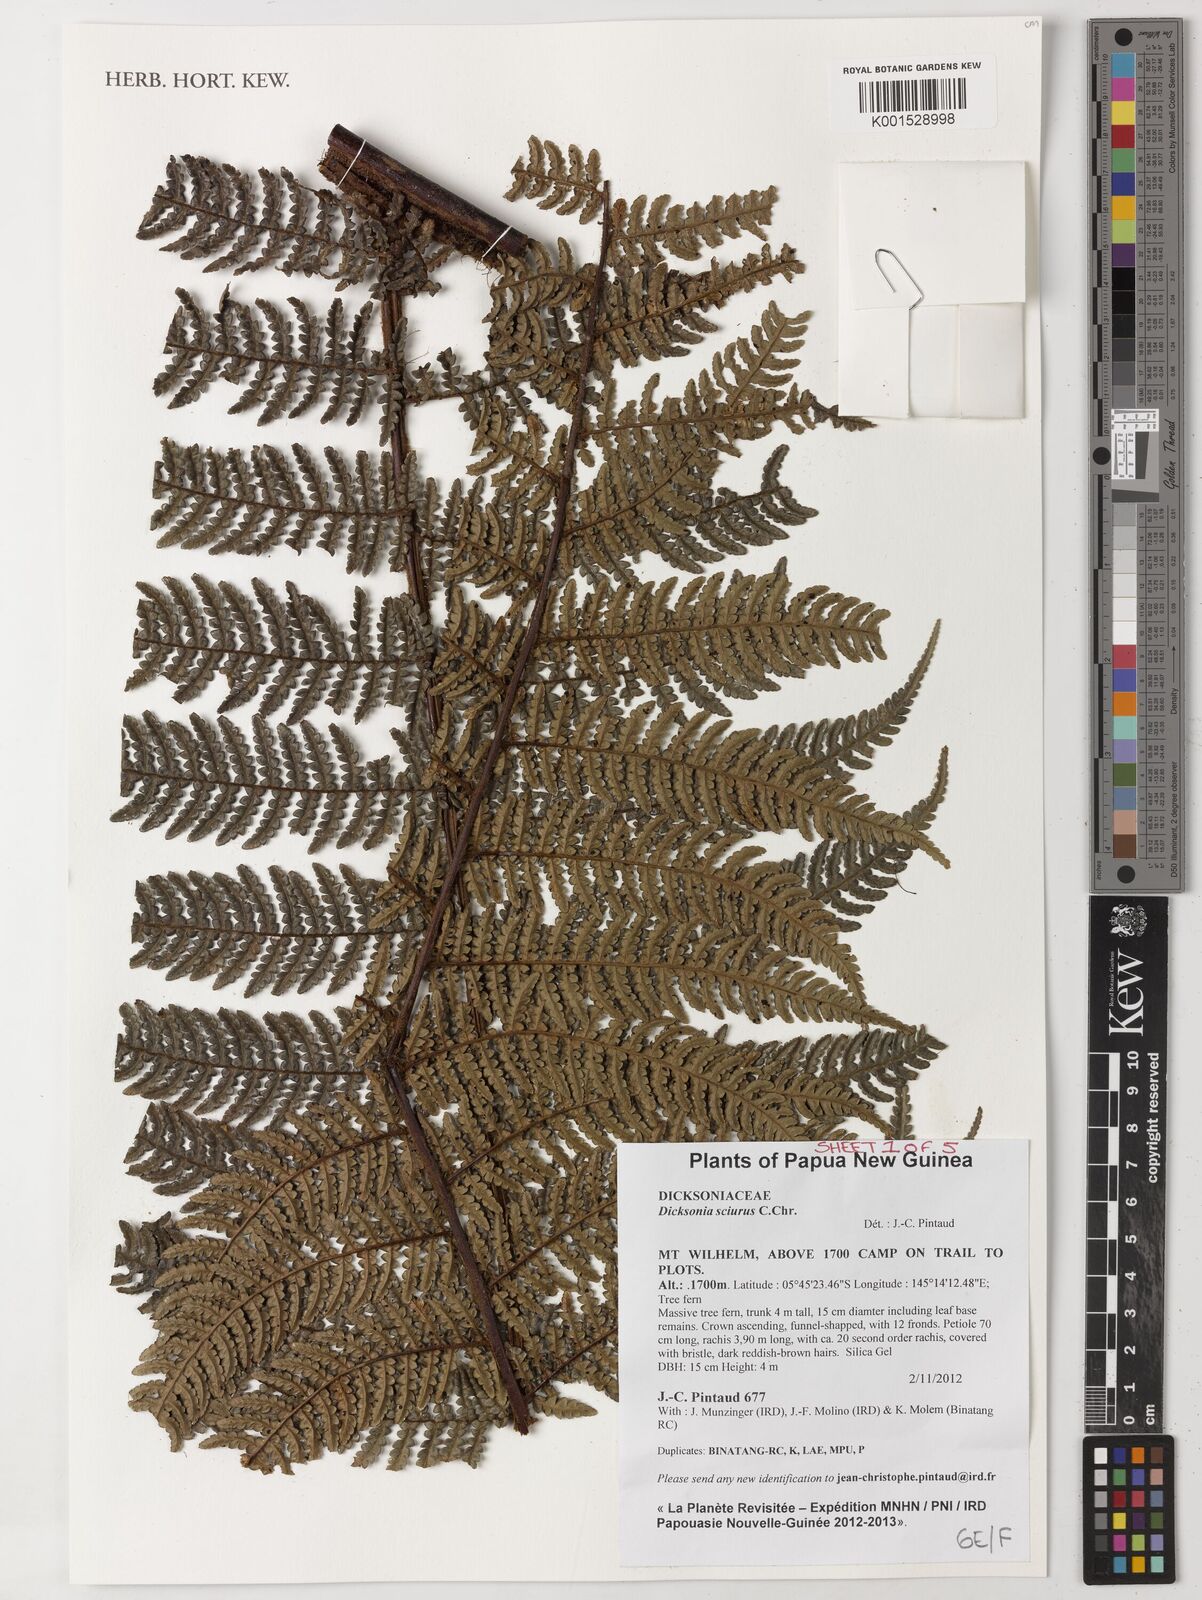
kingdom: Plantae
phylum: Tracheophyta
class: Polypodiopsida
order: Cyatheales
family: Dicksoniaceae
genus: Dicksonia
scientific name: Dicksonia sciurus
